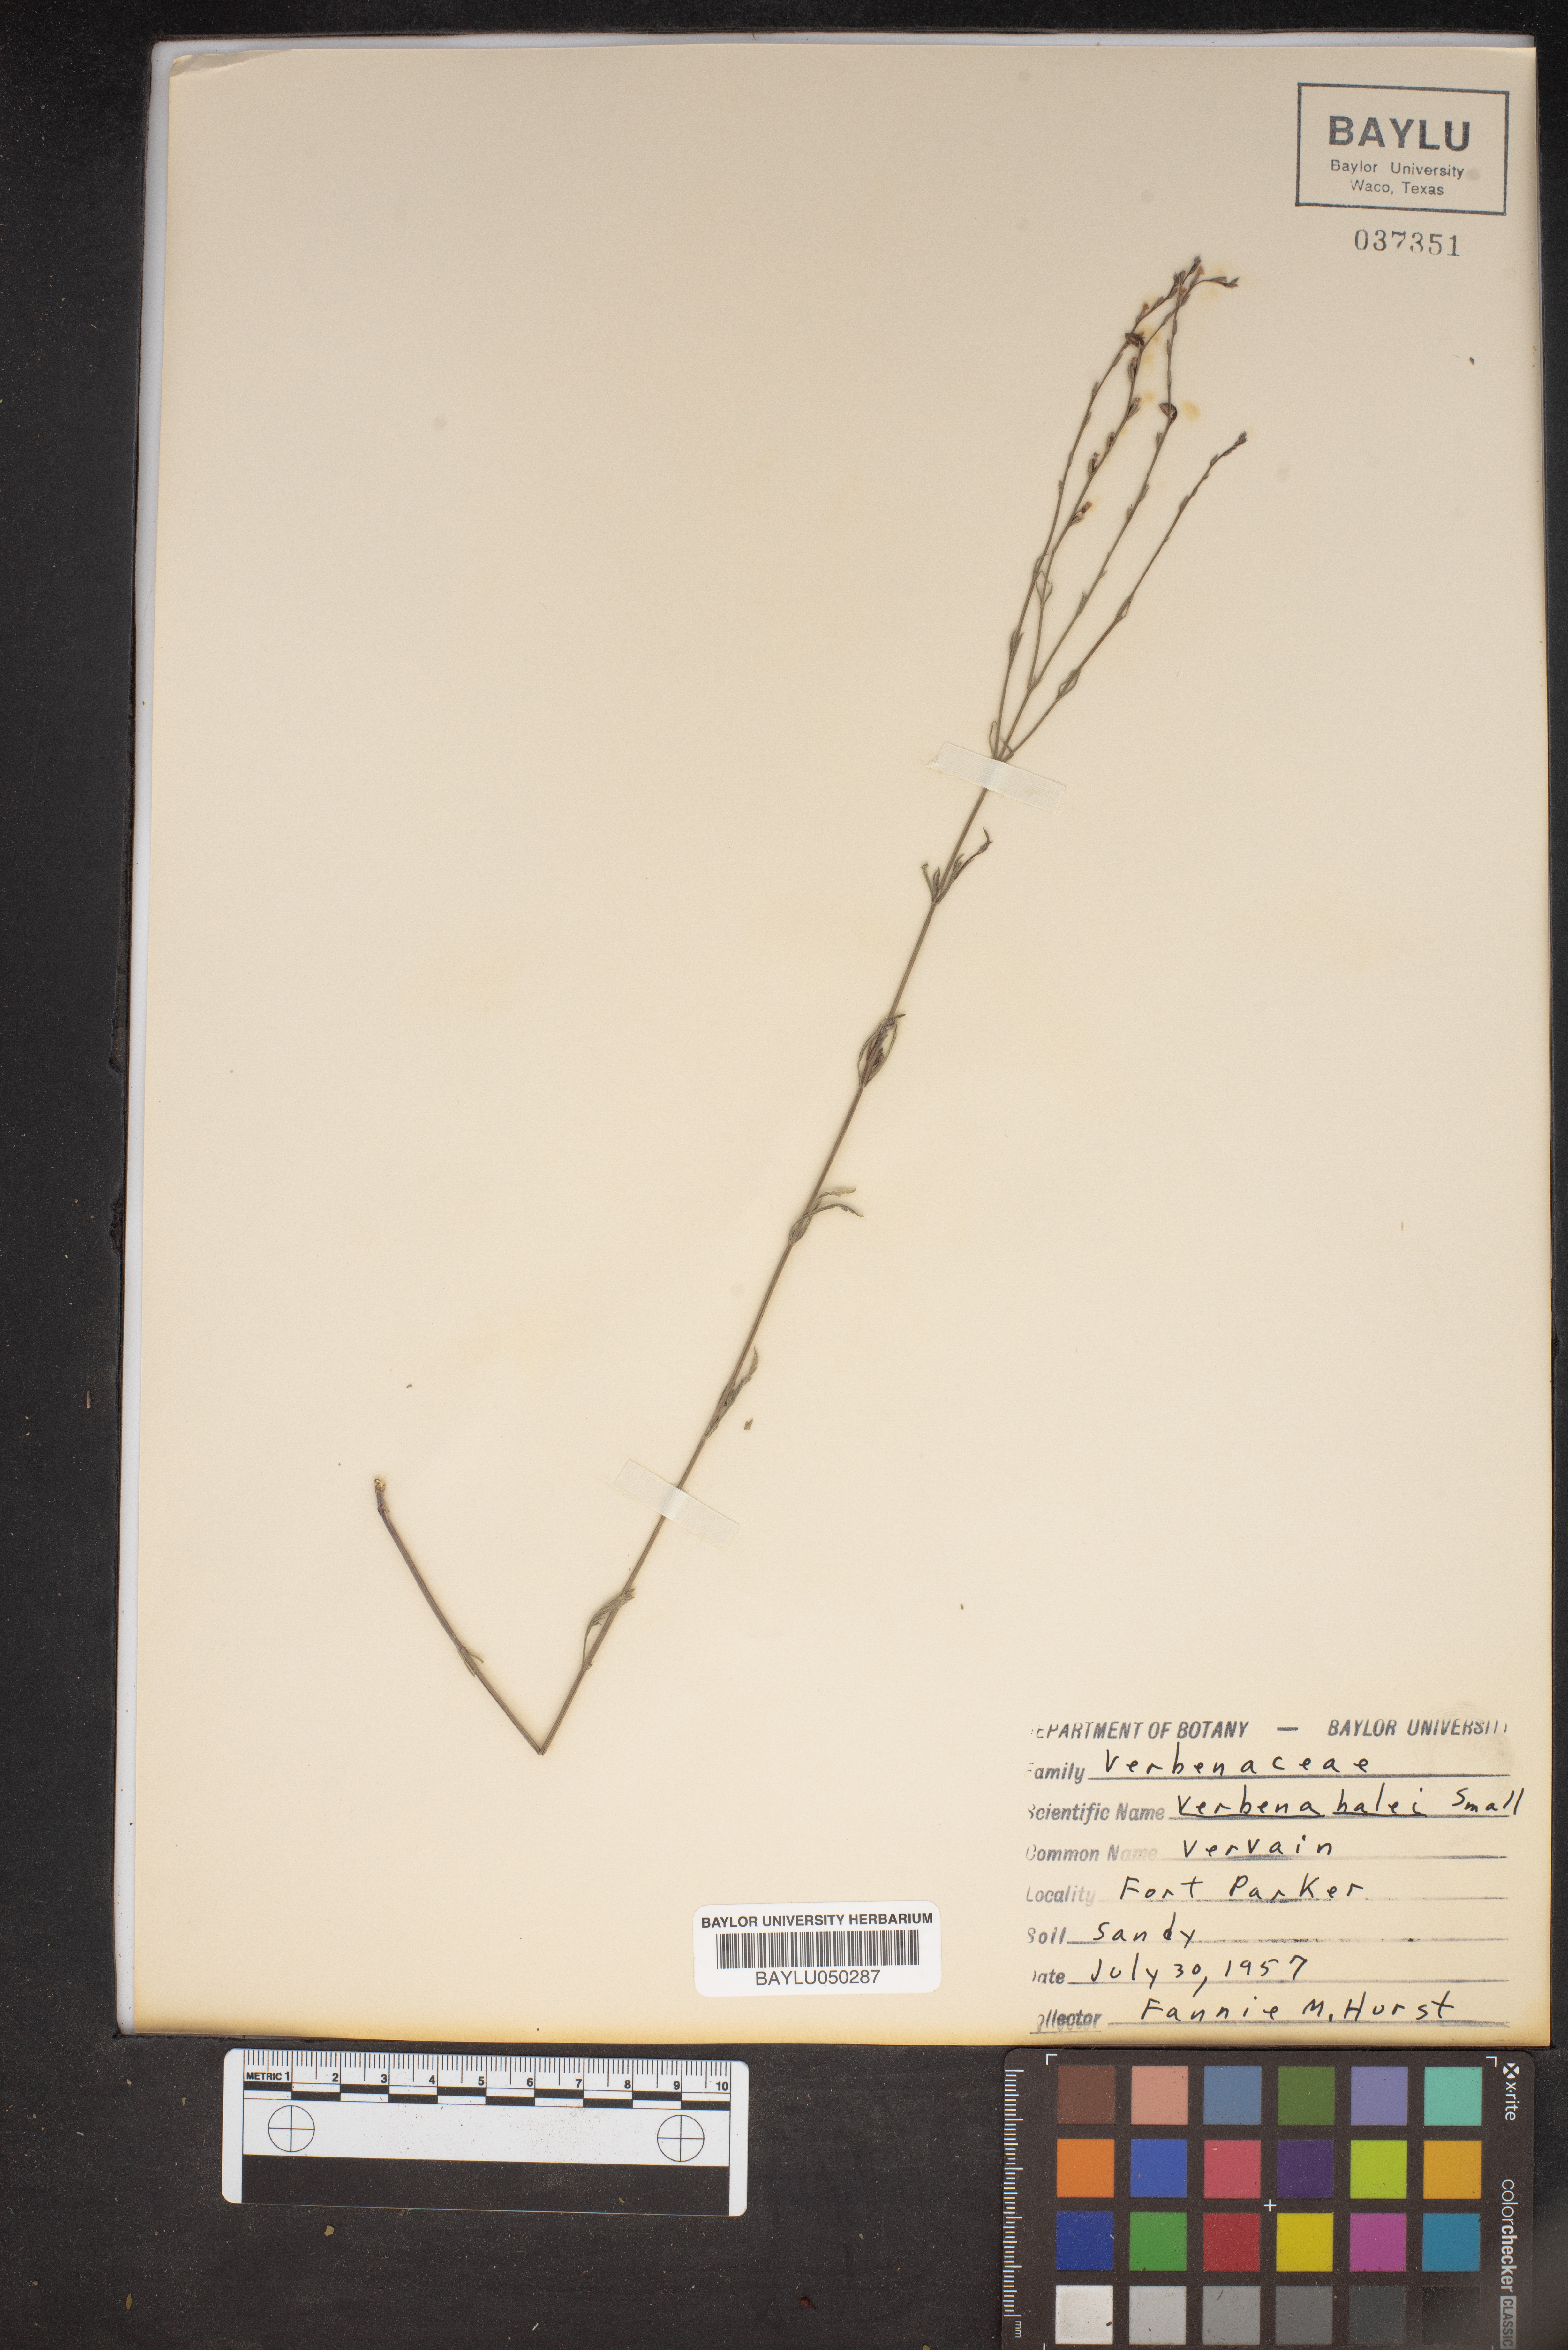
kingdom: Plantae
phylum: Tracheophyta
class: Magnoliopsida
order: Lamiales
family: Verbenaceae
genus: Verbena
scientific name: Verbena halei
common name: Texas vervain
